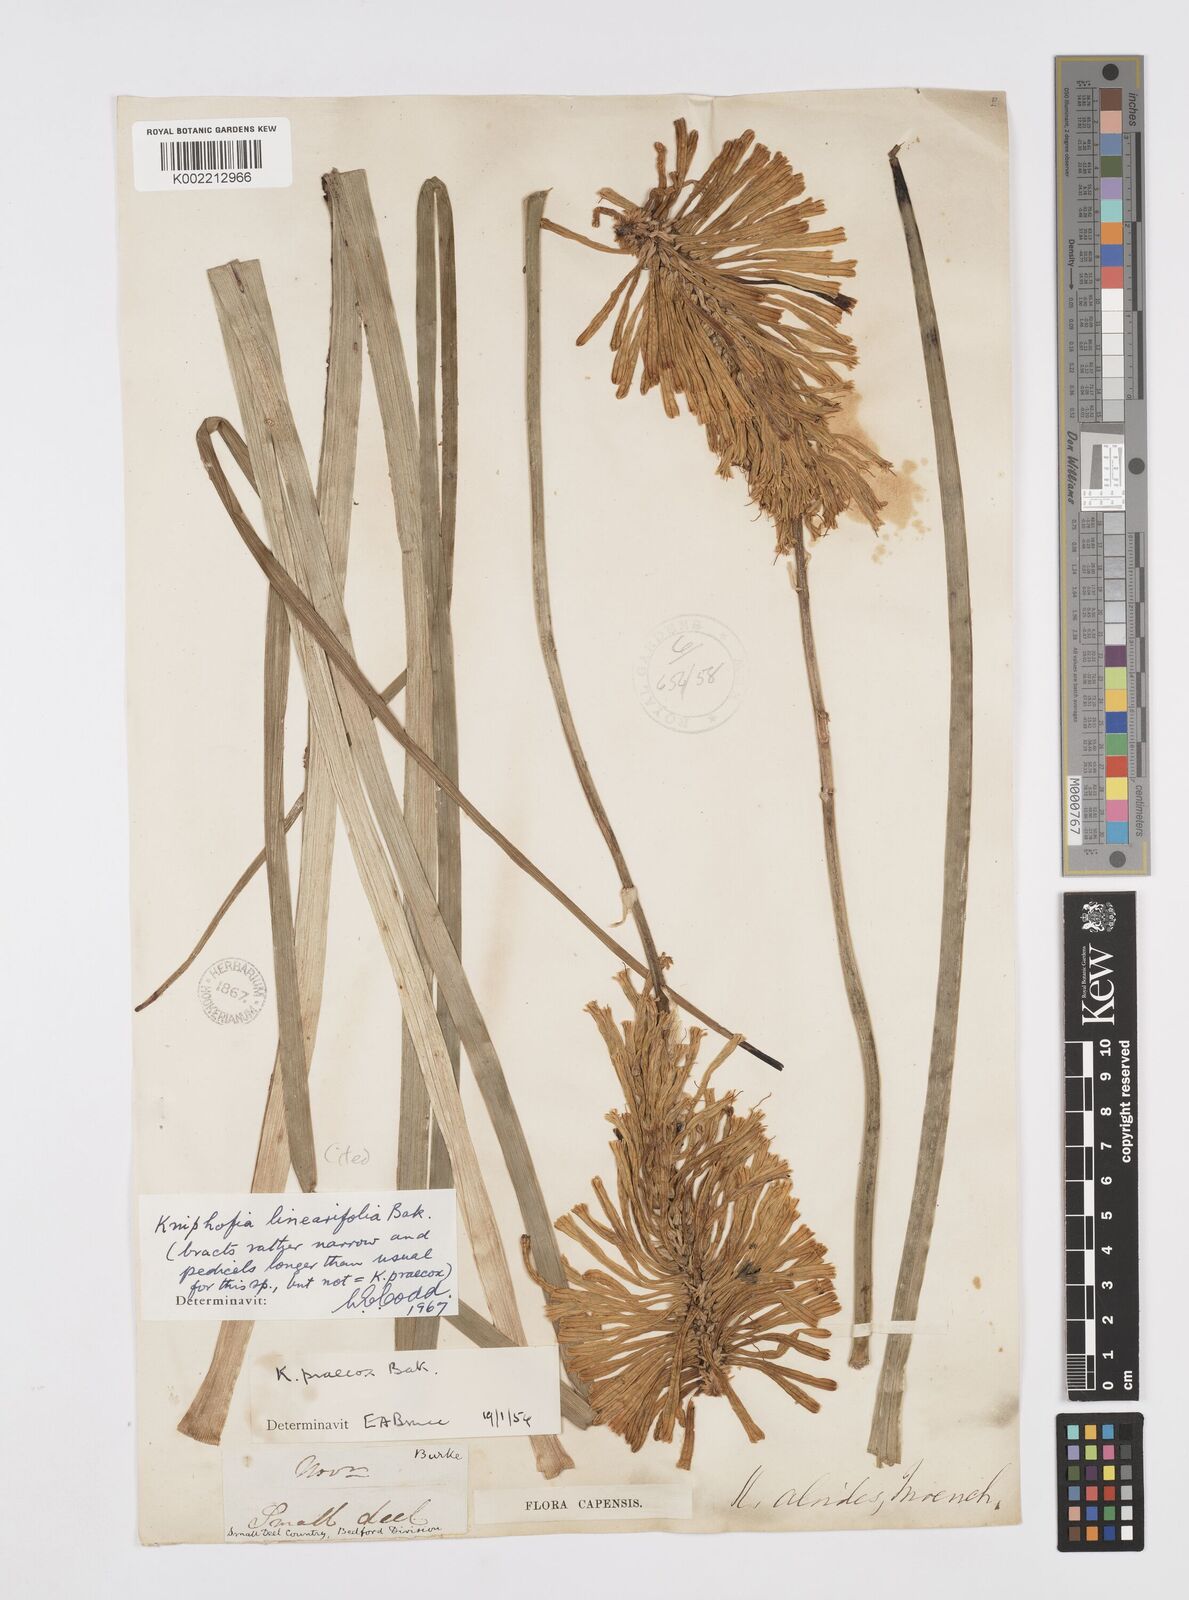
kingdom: Plantae
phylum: Tracheophyta
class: Liliopsida
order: Asparagales
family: Asphodelaceae
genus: Kniphofia
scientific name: Kniphofia linearifolia
